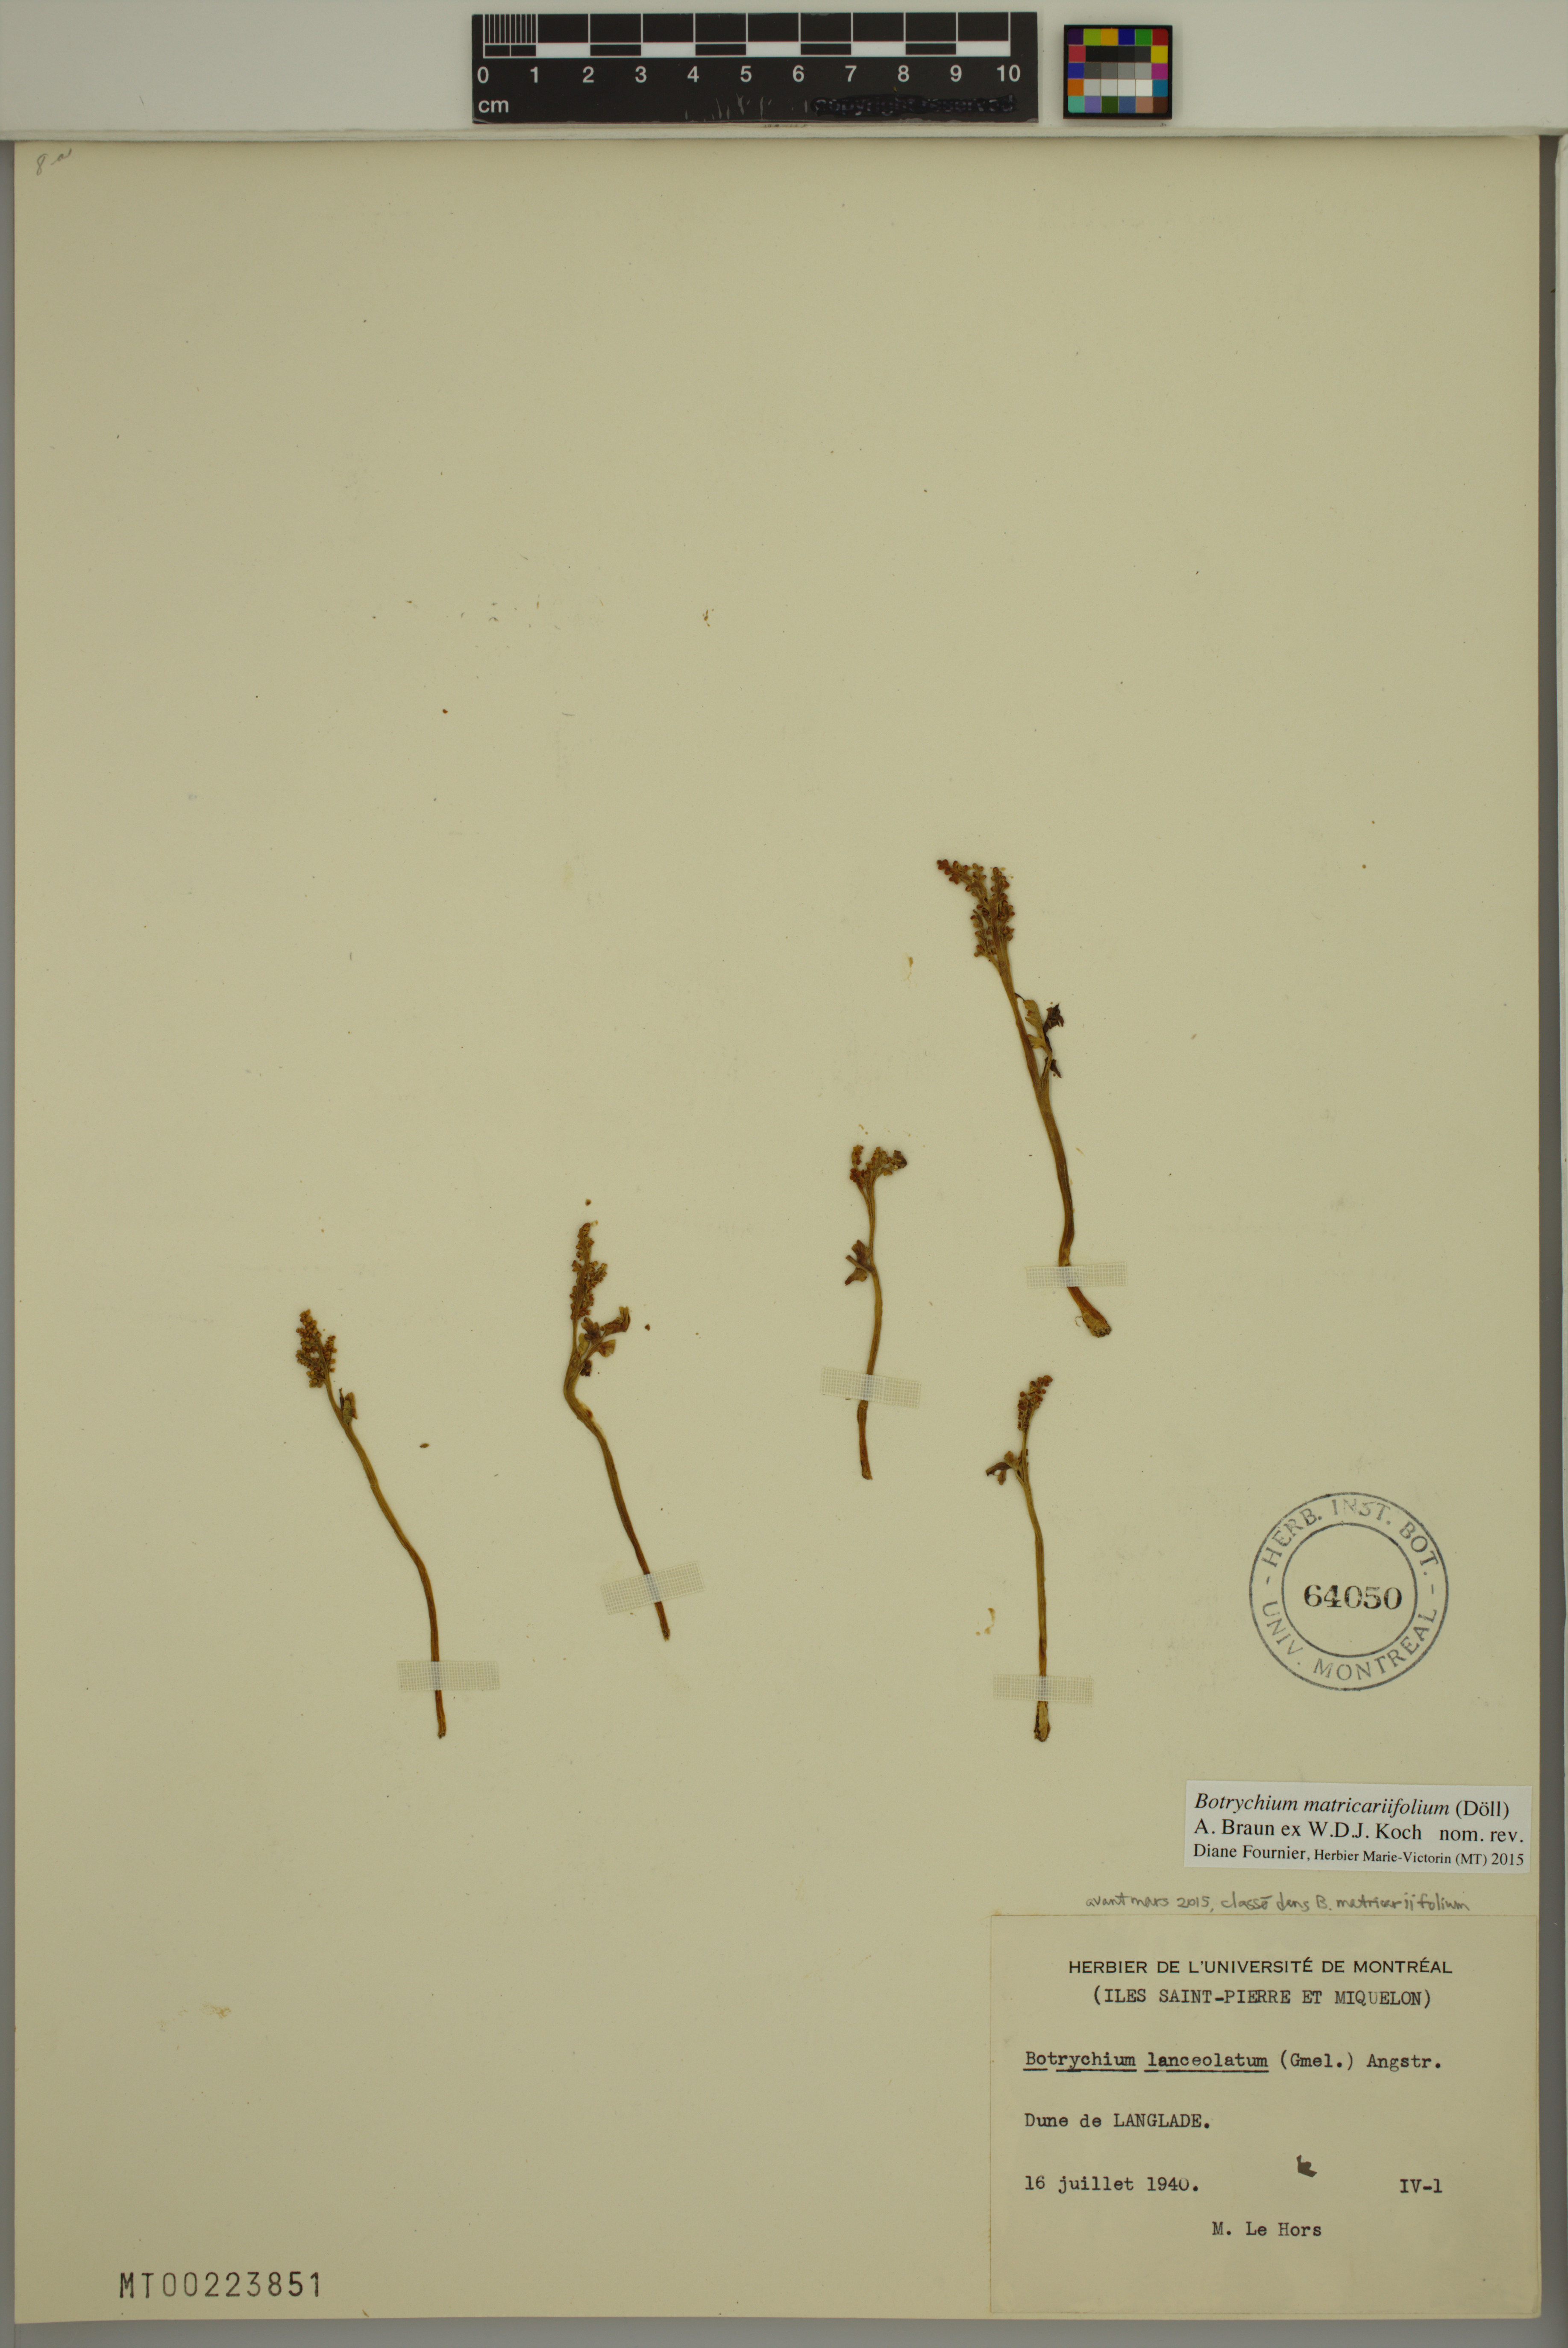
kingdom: Plantae
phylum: Tracheophyta
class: Polypodiopsida
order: Ophioglossales
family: Ophioglossaceae
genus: Botrychium
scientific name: Botrychium matricariifolium
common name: Branched moonwort
